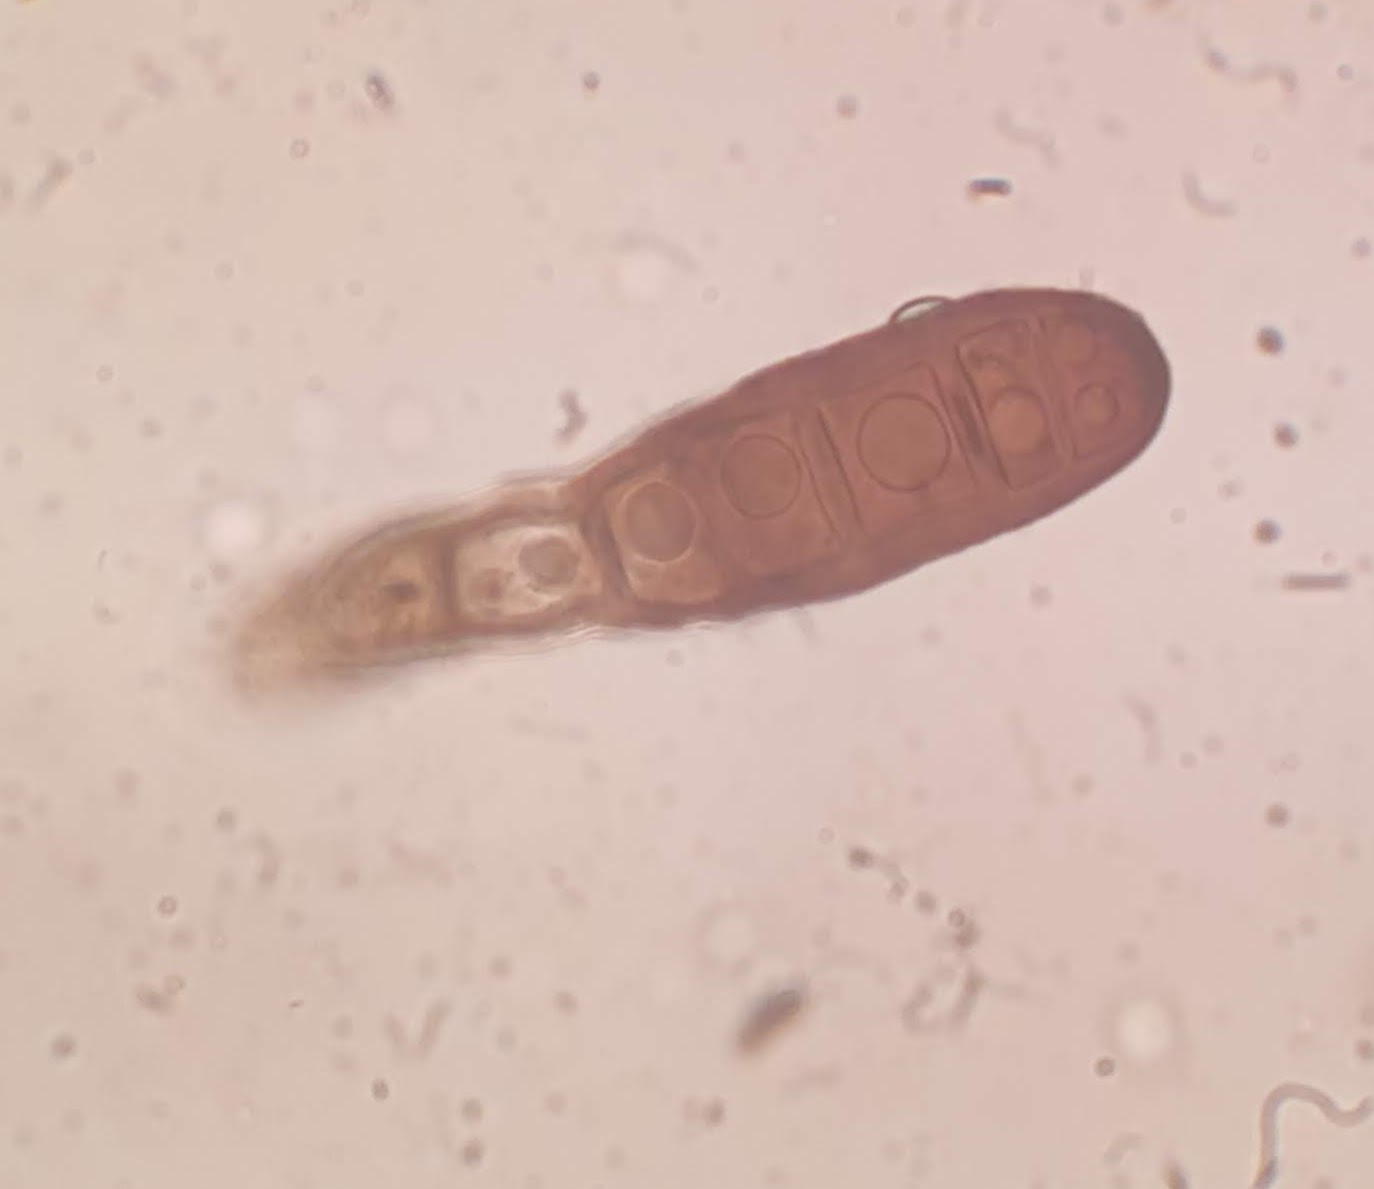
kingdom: Fungi
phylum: Ascomycota
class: Sordariomycetes
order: Diaporthales
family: Coryneaceae
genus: Coryneum
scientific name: Coryneum lanciforme
